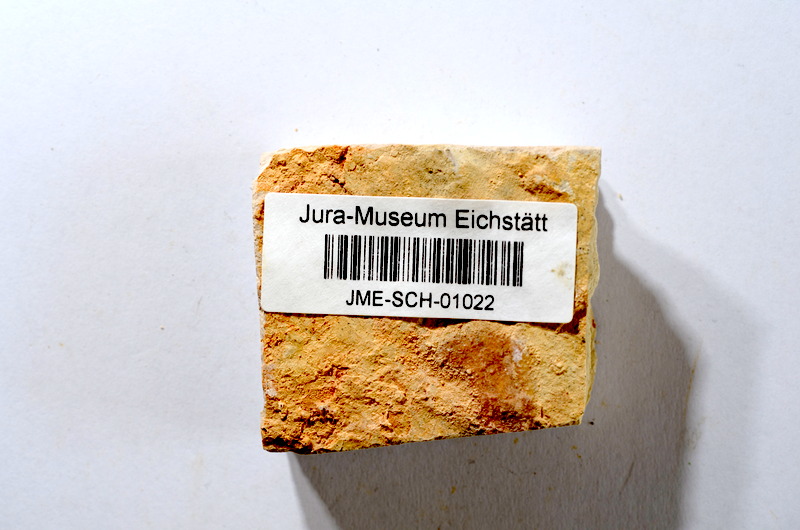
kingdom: Animalia
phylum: Chordata
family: Ascalaboidae
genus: Tharsis
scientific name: Tharsis dubius
